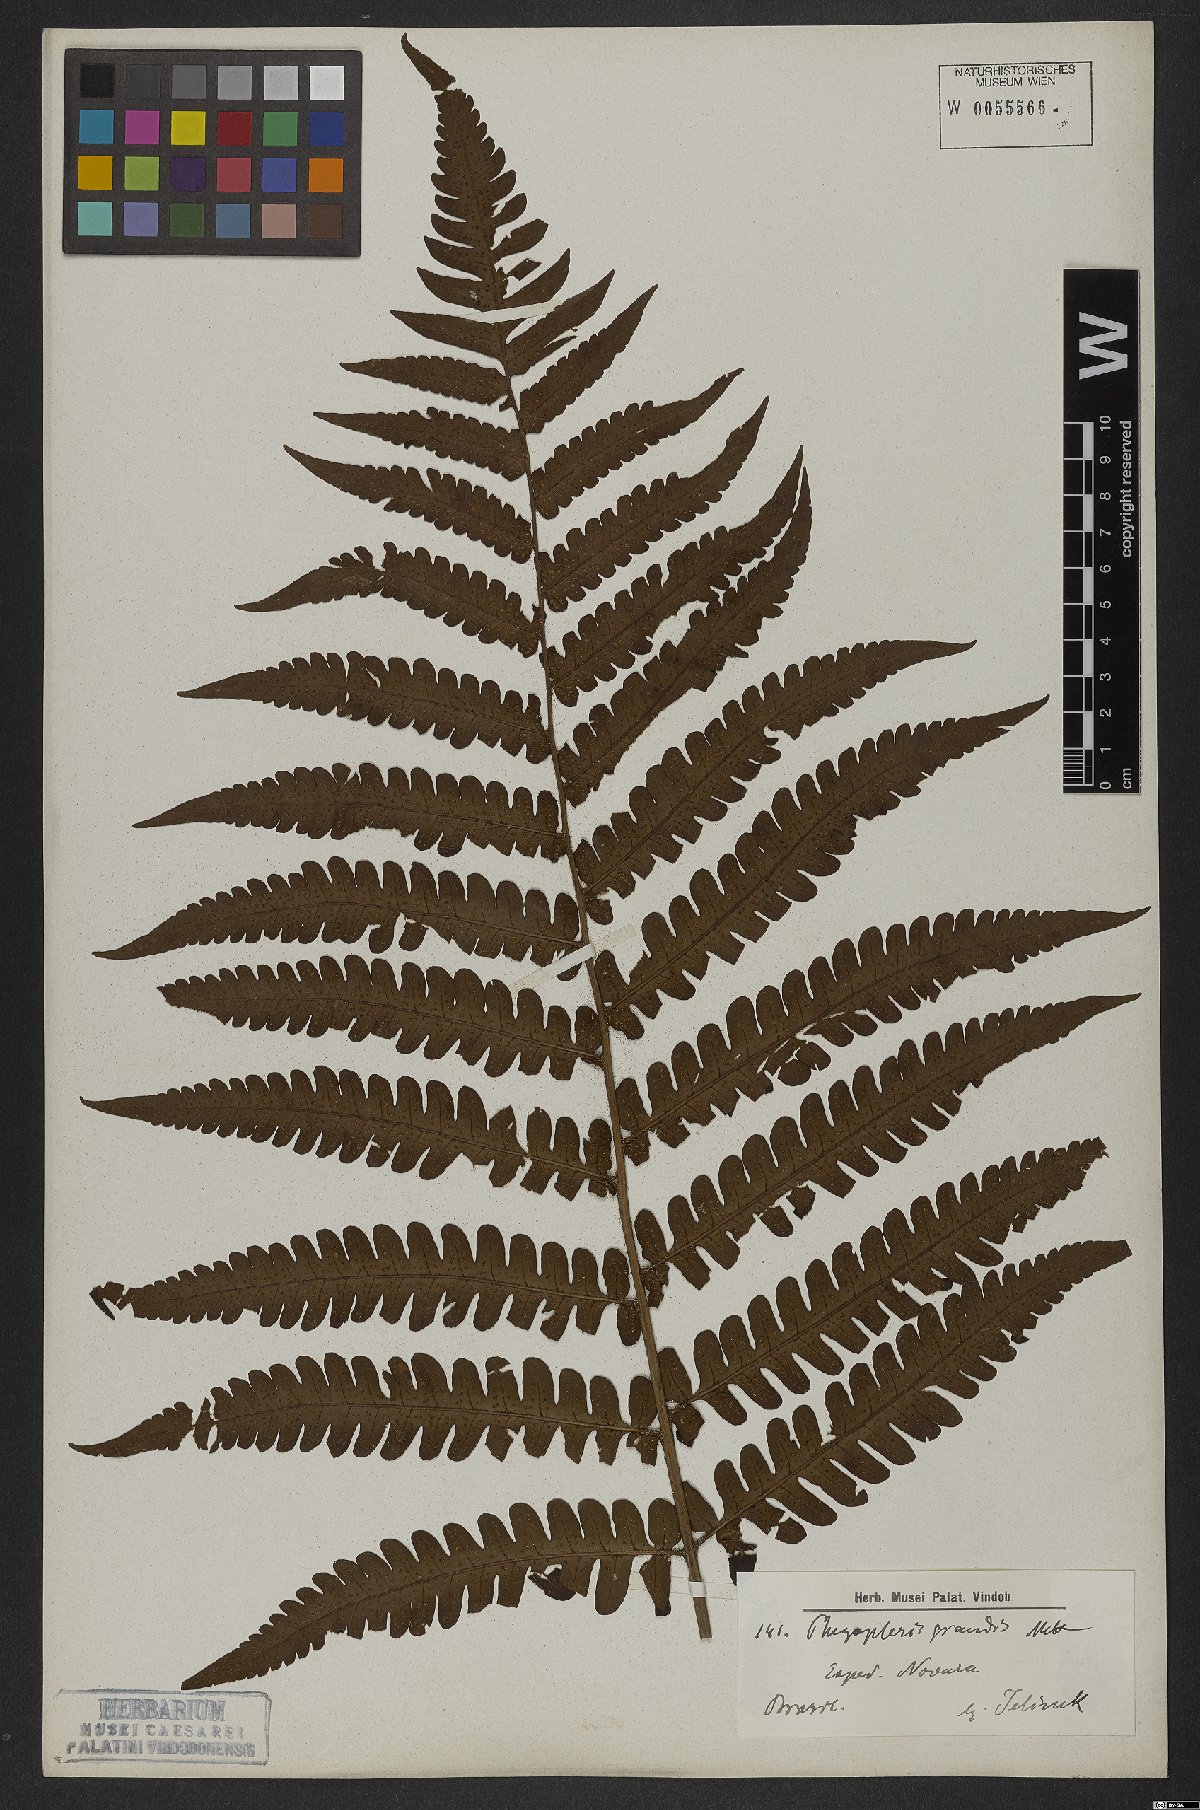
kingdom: Plantae
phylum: Tracheophyta
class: Polypodiopsida
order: Polypodiales
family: Dryopteridaceae
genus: Megalastrum
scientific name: Megalastrum grande
